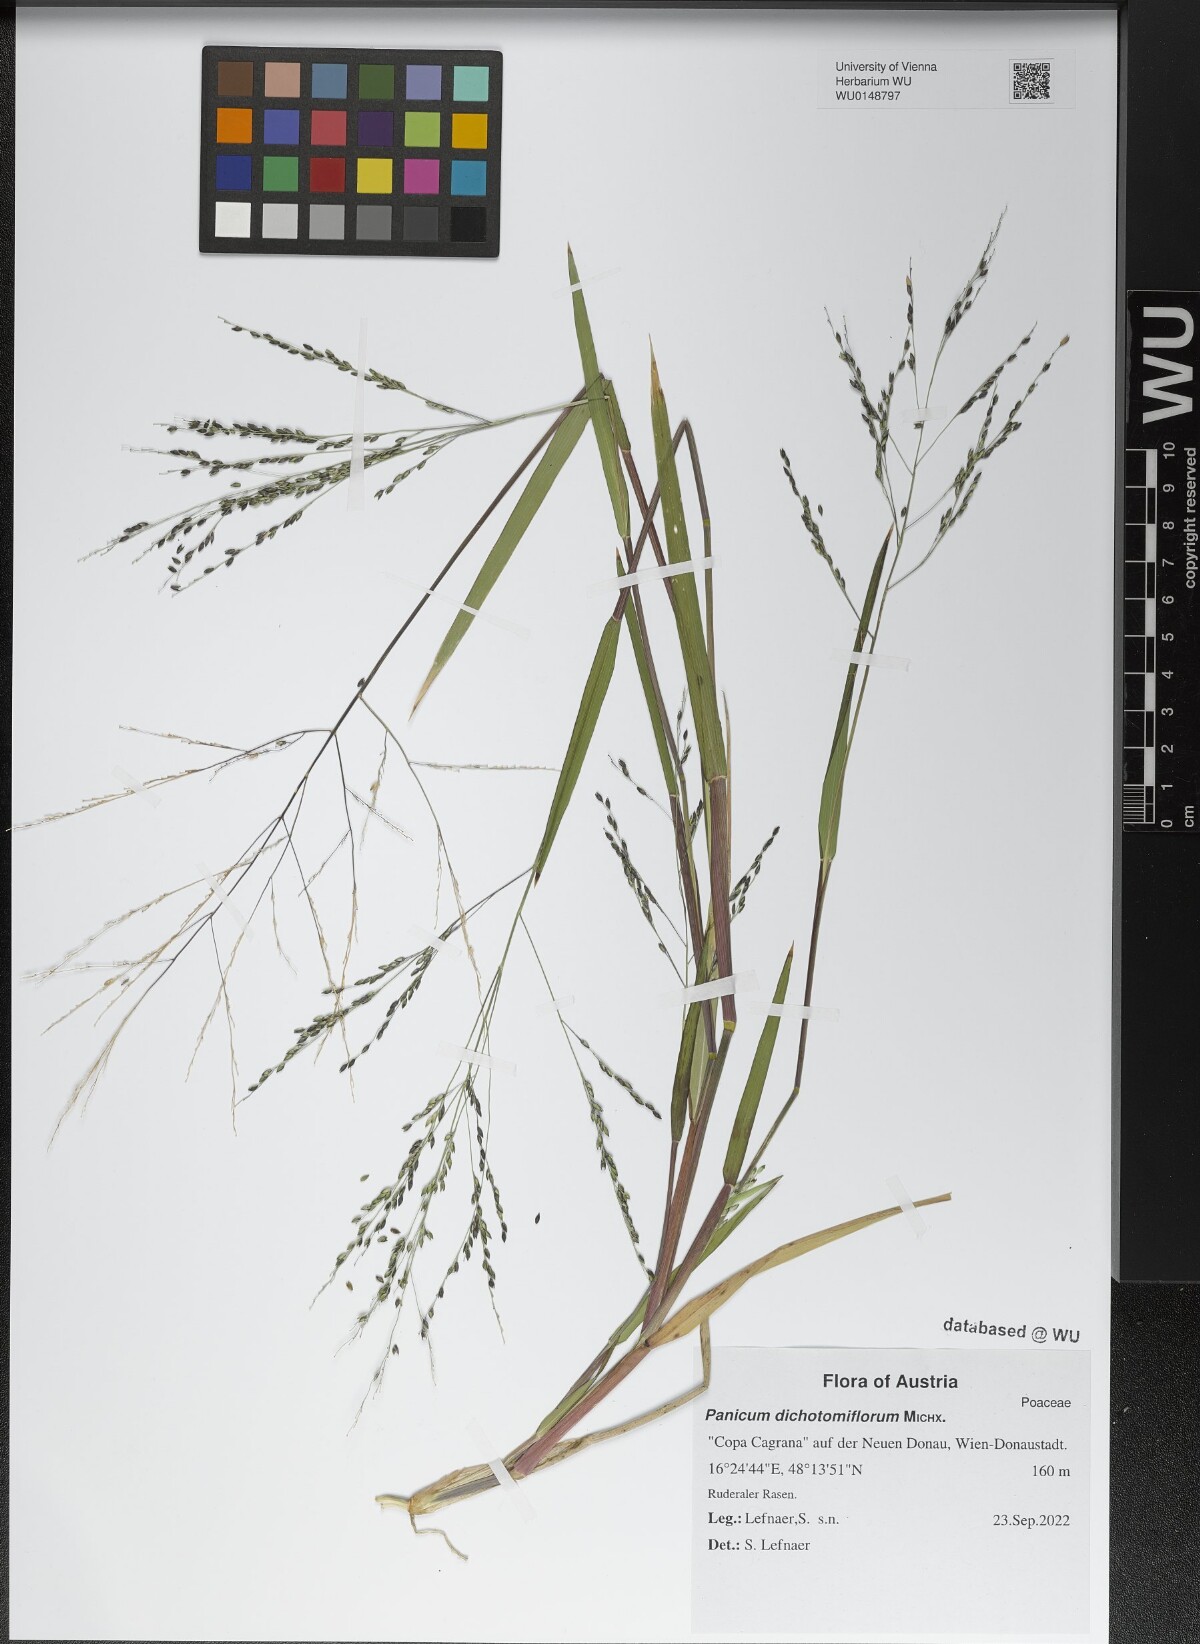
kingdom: Plantae
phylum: Tracheophyta
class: Liliopsida
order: Poales
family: Poaceae
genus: Panicum
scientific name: Panicum dichotomiflorum
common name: Autumn millet
